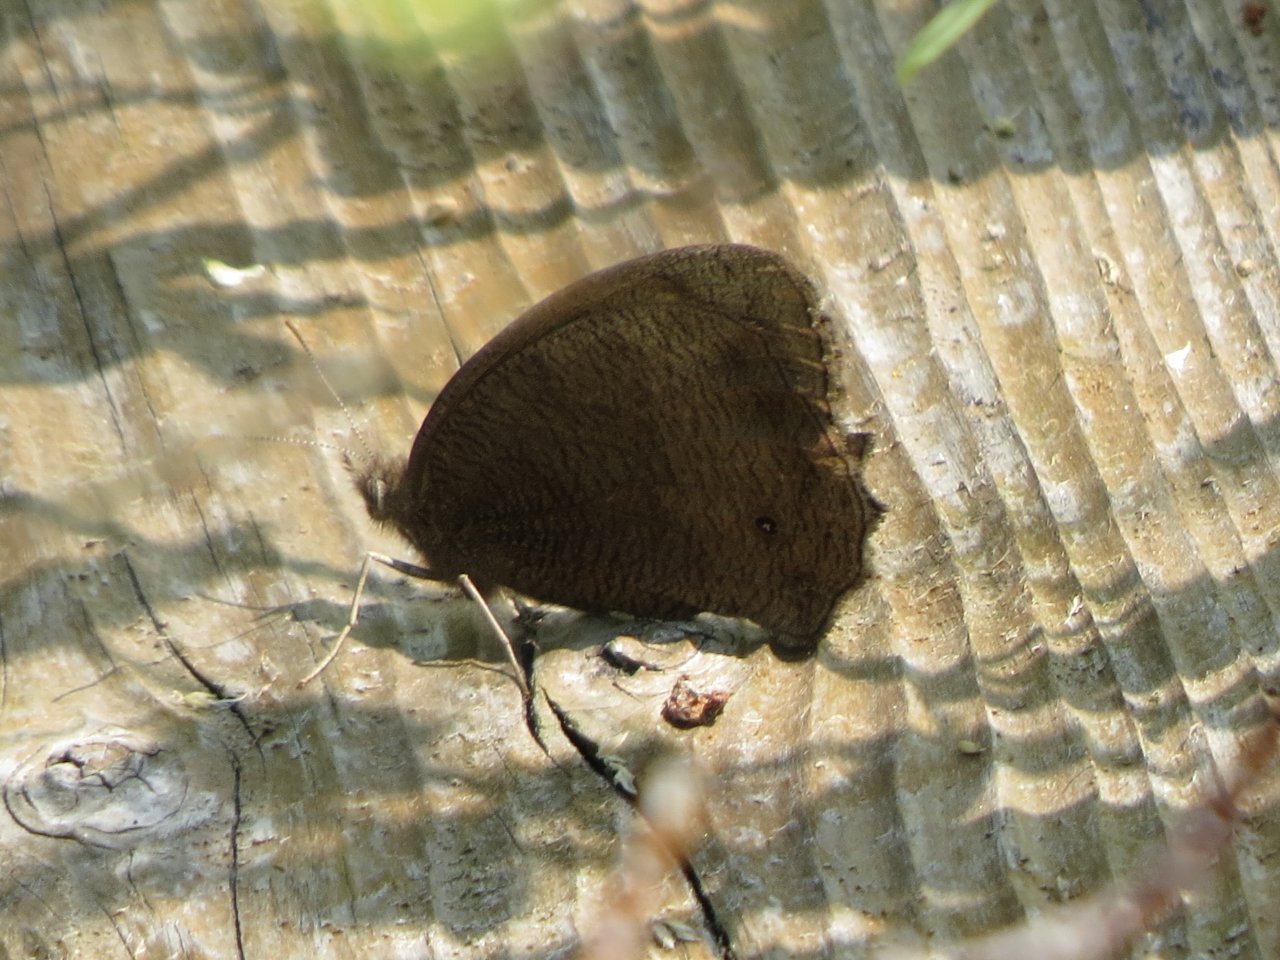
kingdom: Animalia
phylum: Arthropoda
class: Insecta
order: Lepidoptera
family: Nymphalidae
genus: Cercyonis
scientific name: Cercyonis pegala
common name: Common Wood-Nymph
